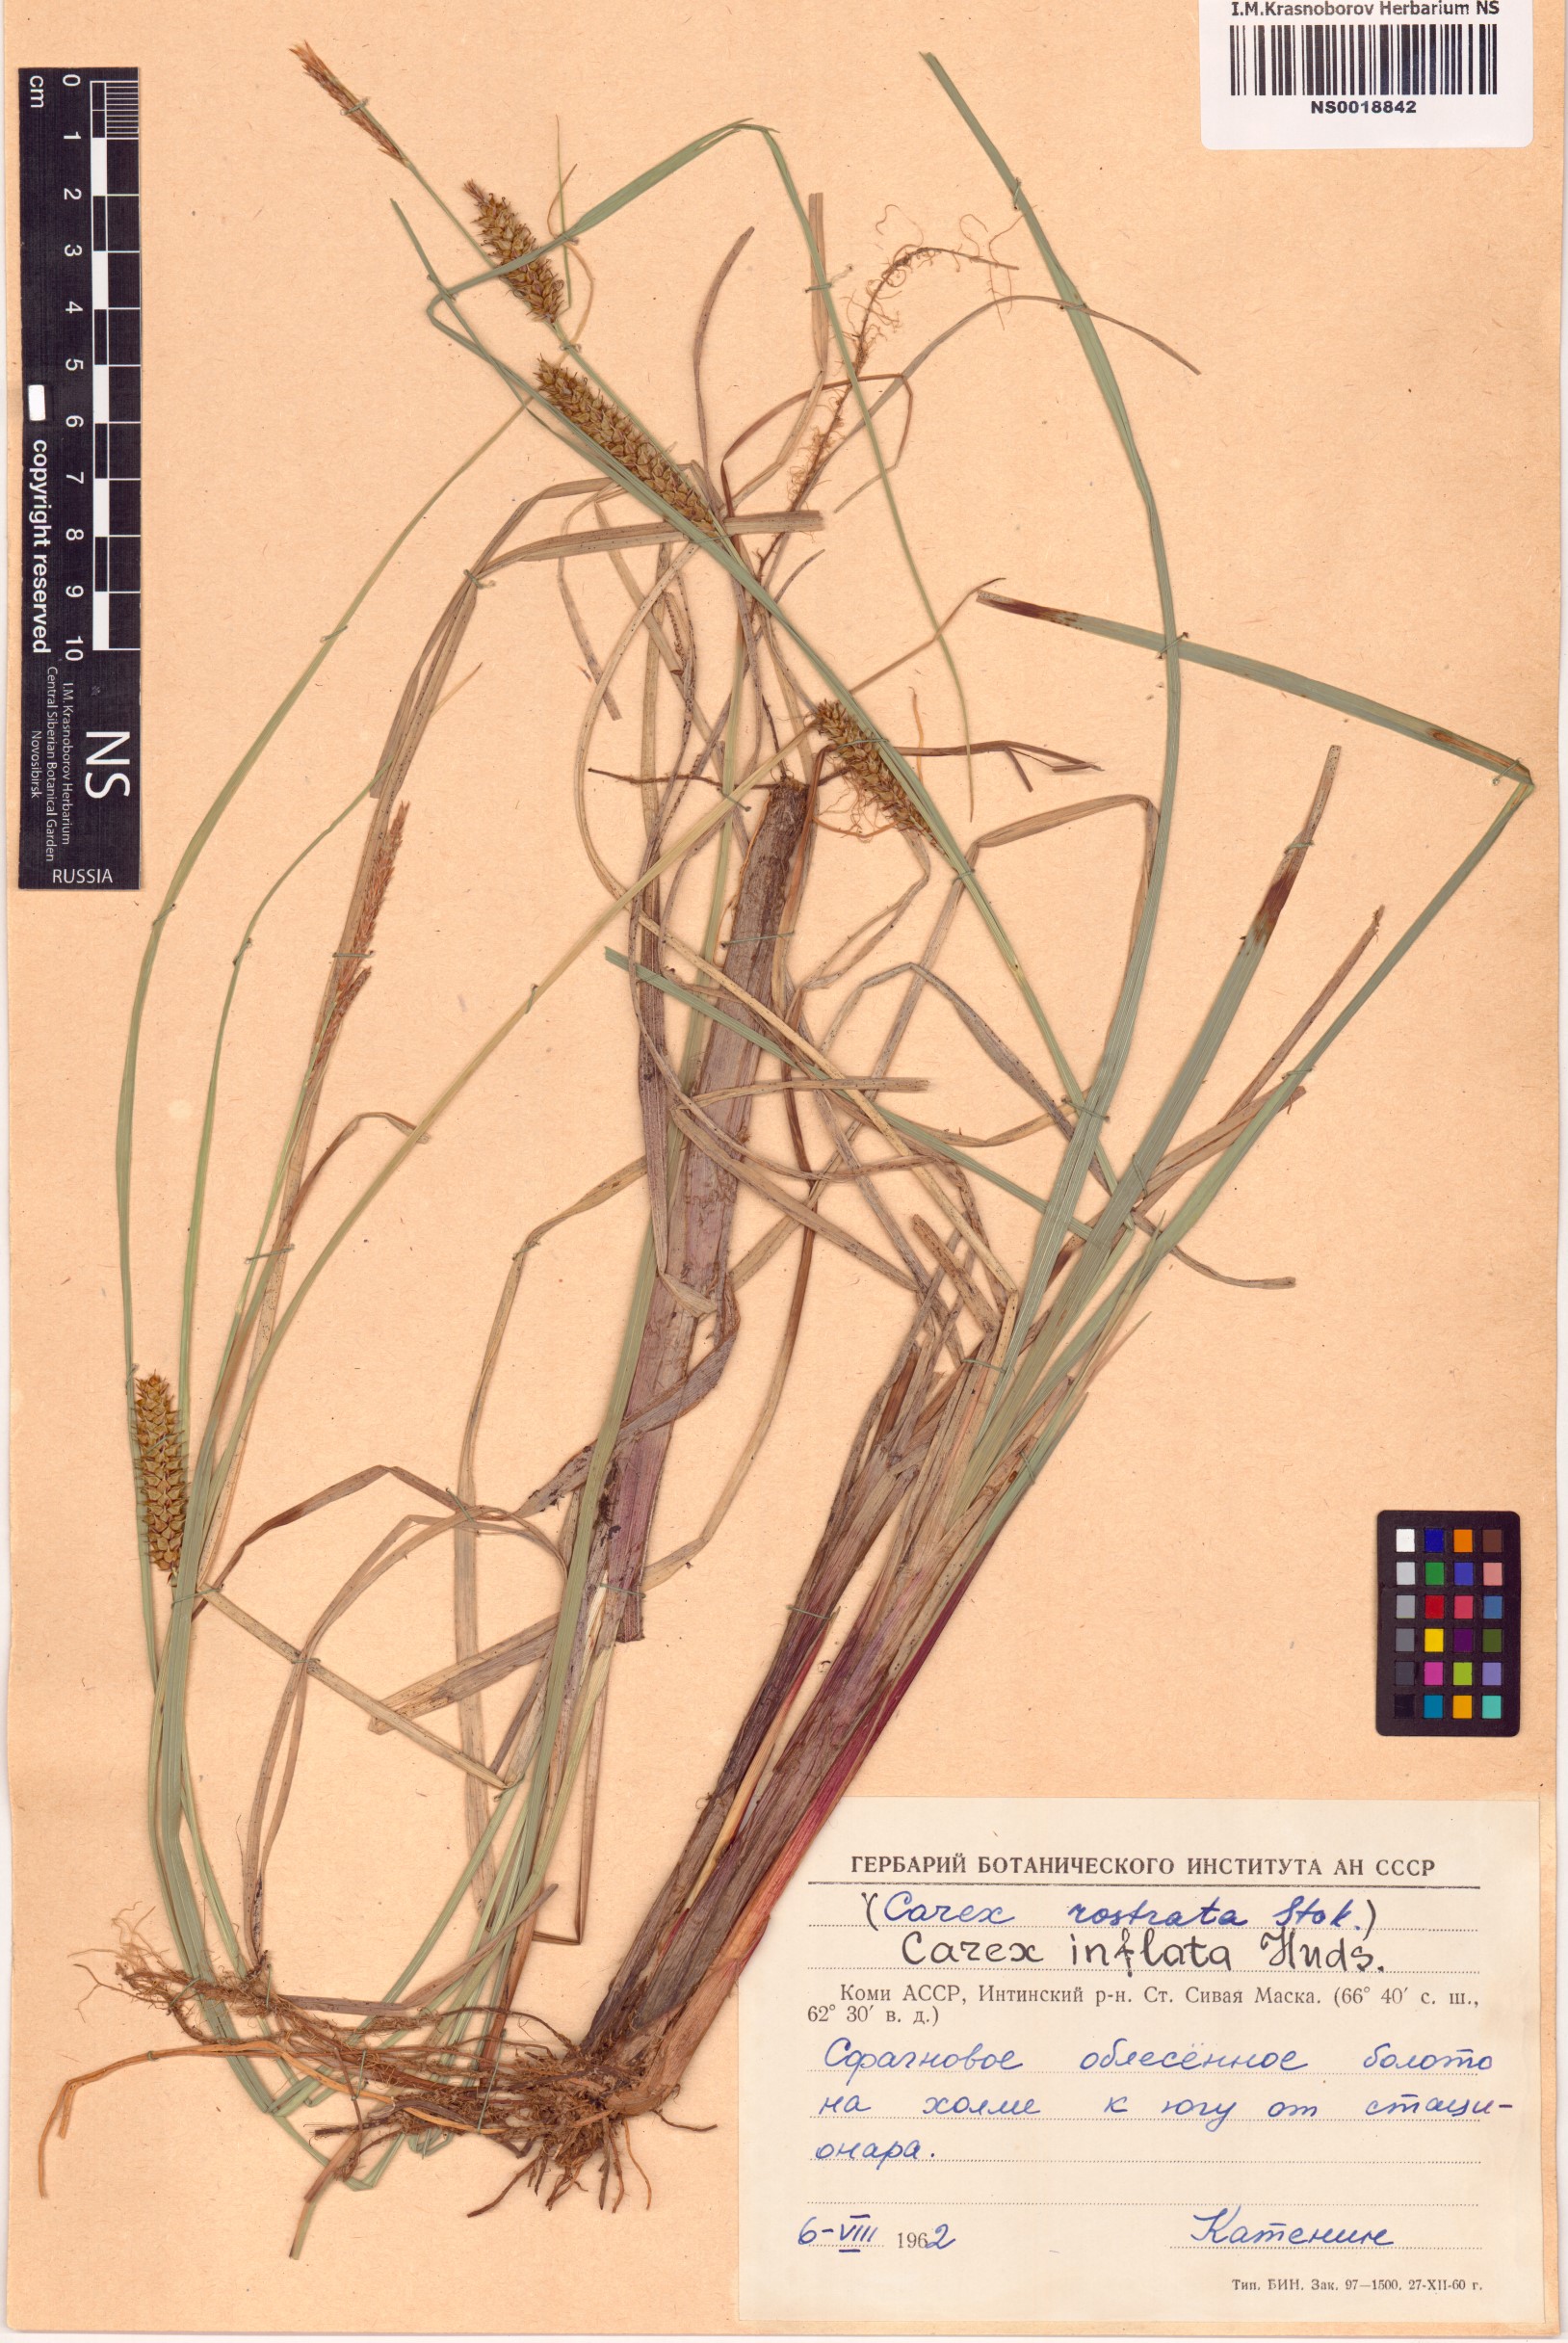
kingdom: Plantae
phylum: Tracheophyta
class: Liliopsida
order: Poales
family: Cyperaceae
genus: Carex
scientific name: Carex rostrata
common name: Bottle sedge
